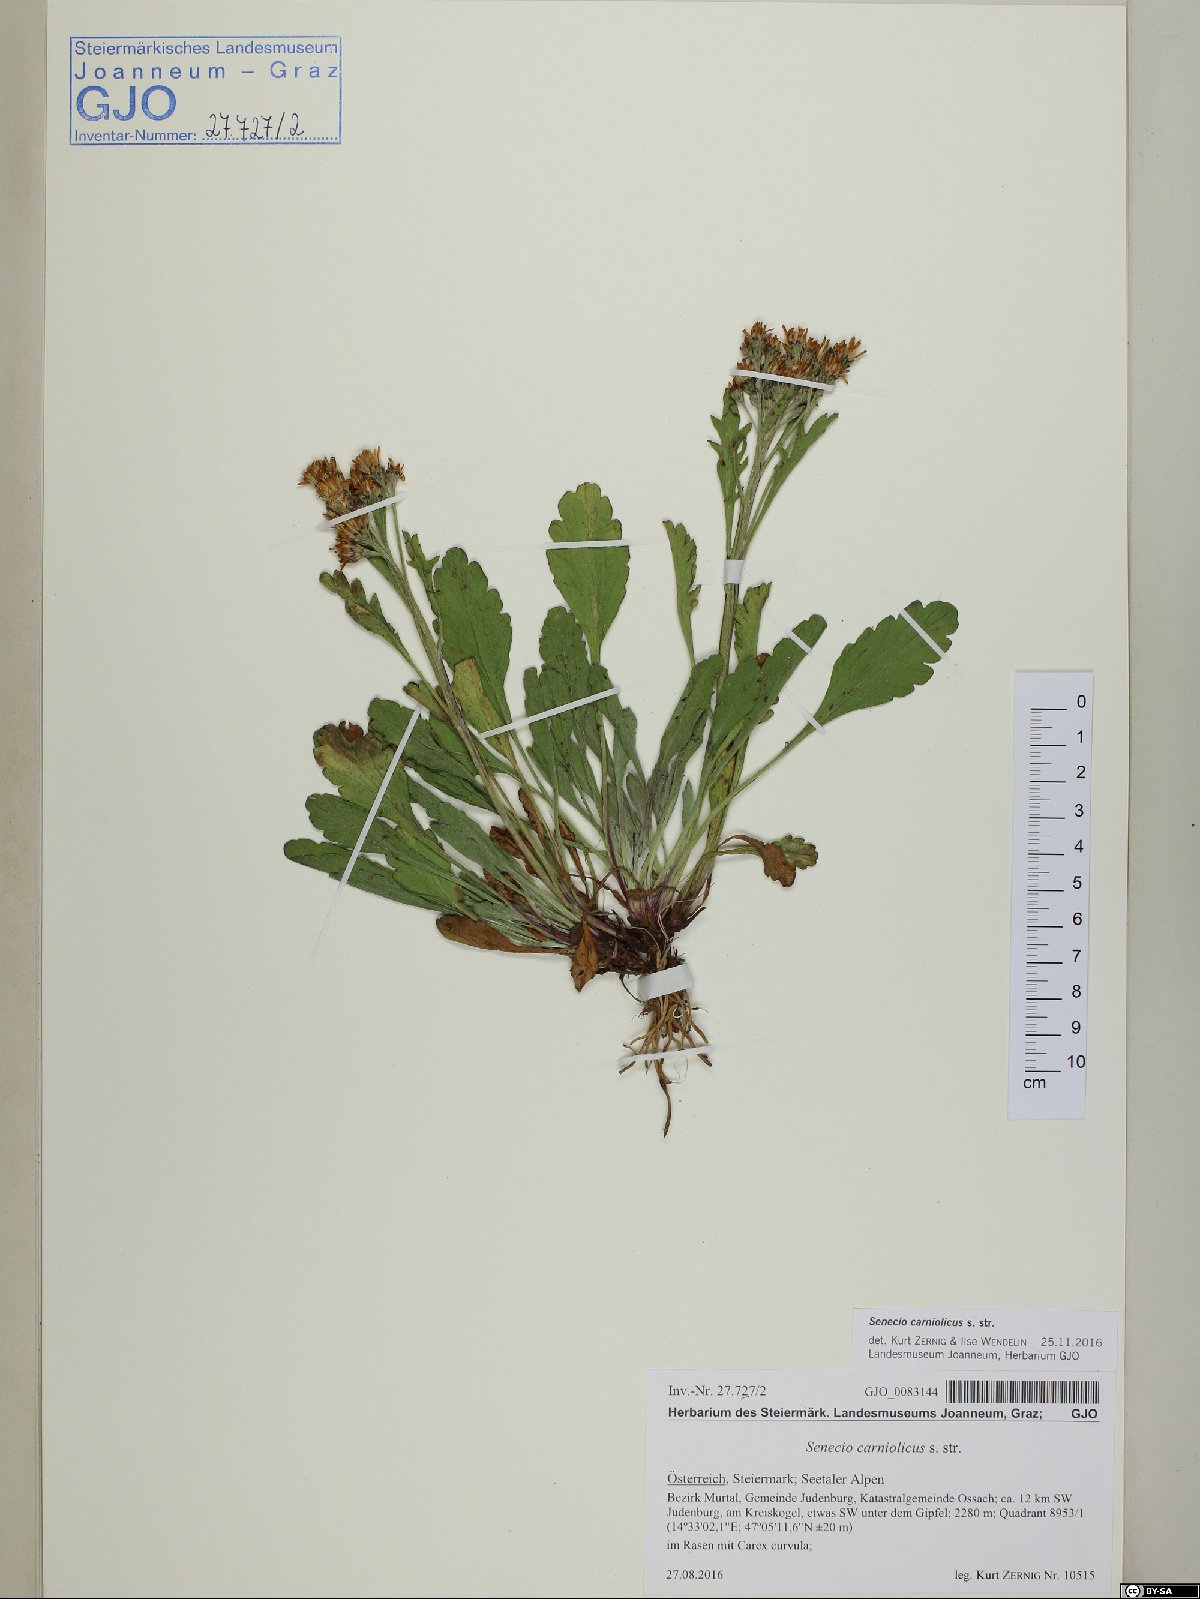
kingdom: Plantae
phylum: Tracheophyta
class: Magnoliopsida
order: Asterales
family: Asteraceae
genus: Jacobaea
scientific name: Jacobaea carniolica
